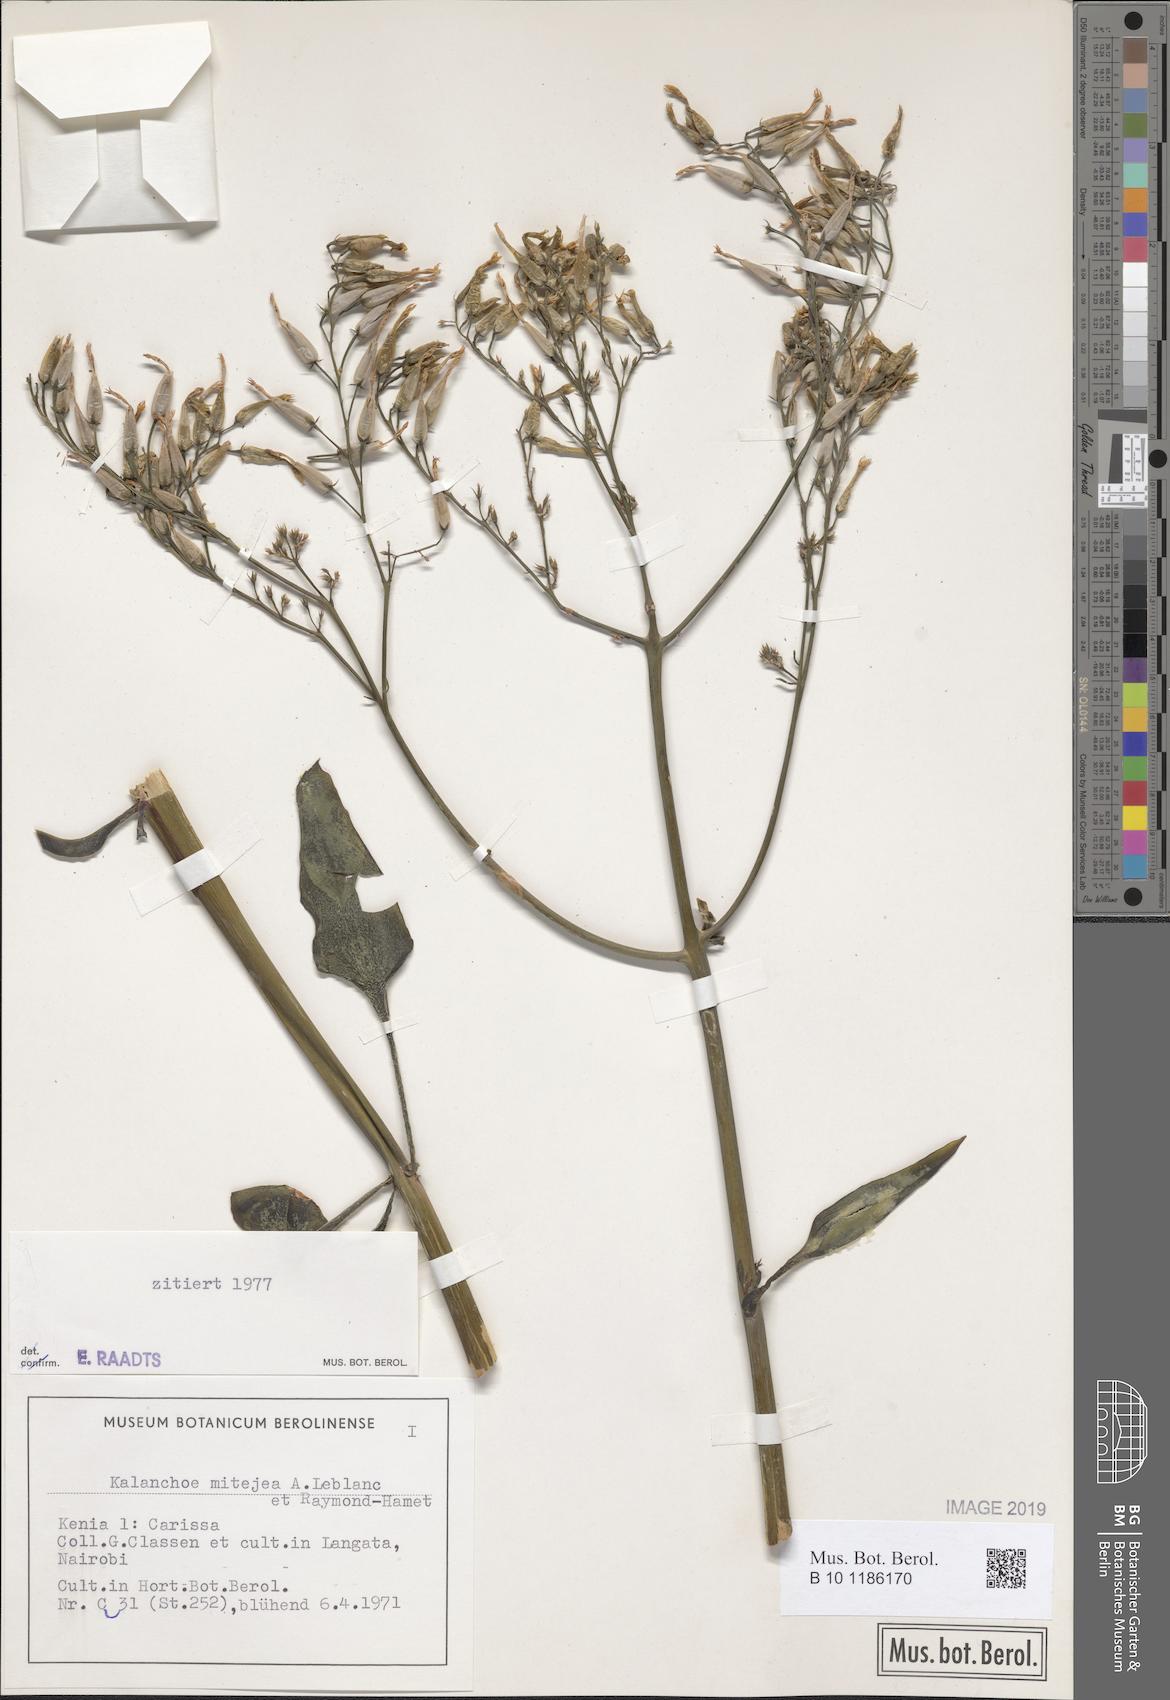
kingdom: Plantae
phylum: Tracheophyta
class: Magnoliopsida
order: Saxifragales
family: Crassulaceae
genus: Kalanchoe
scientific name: Kalanchoe mitejea
